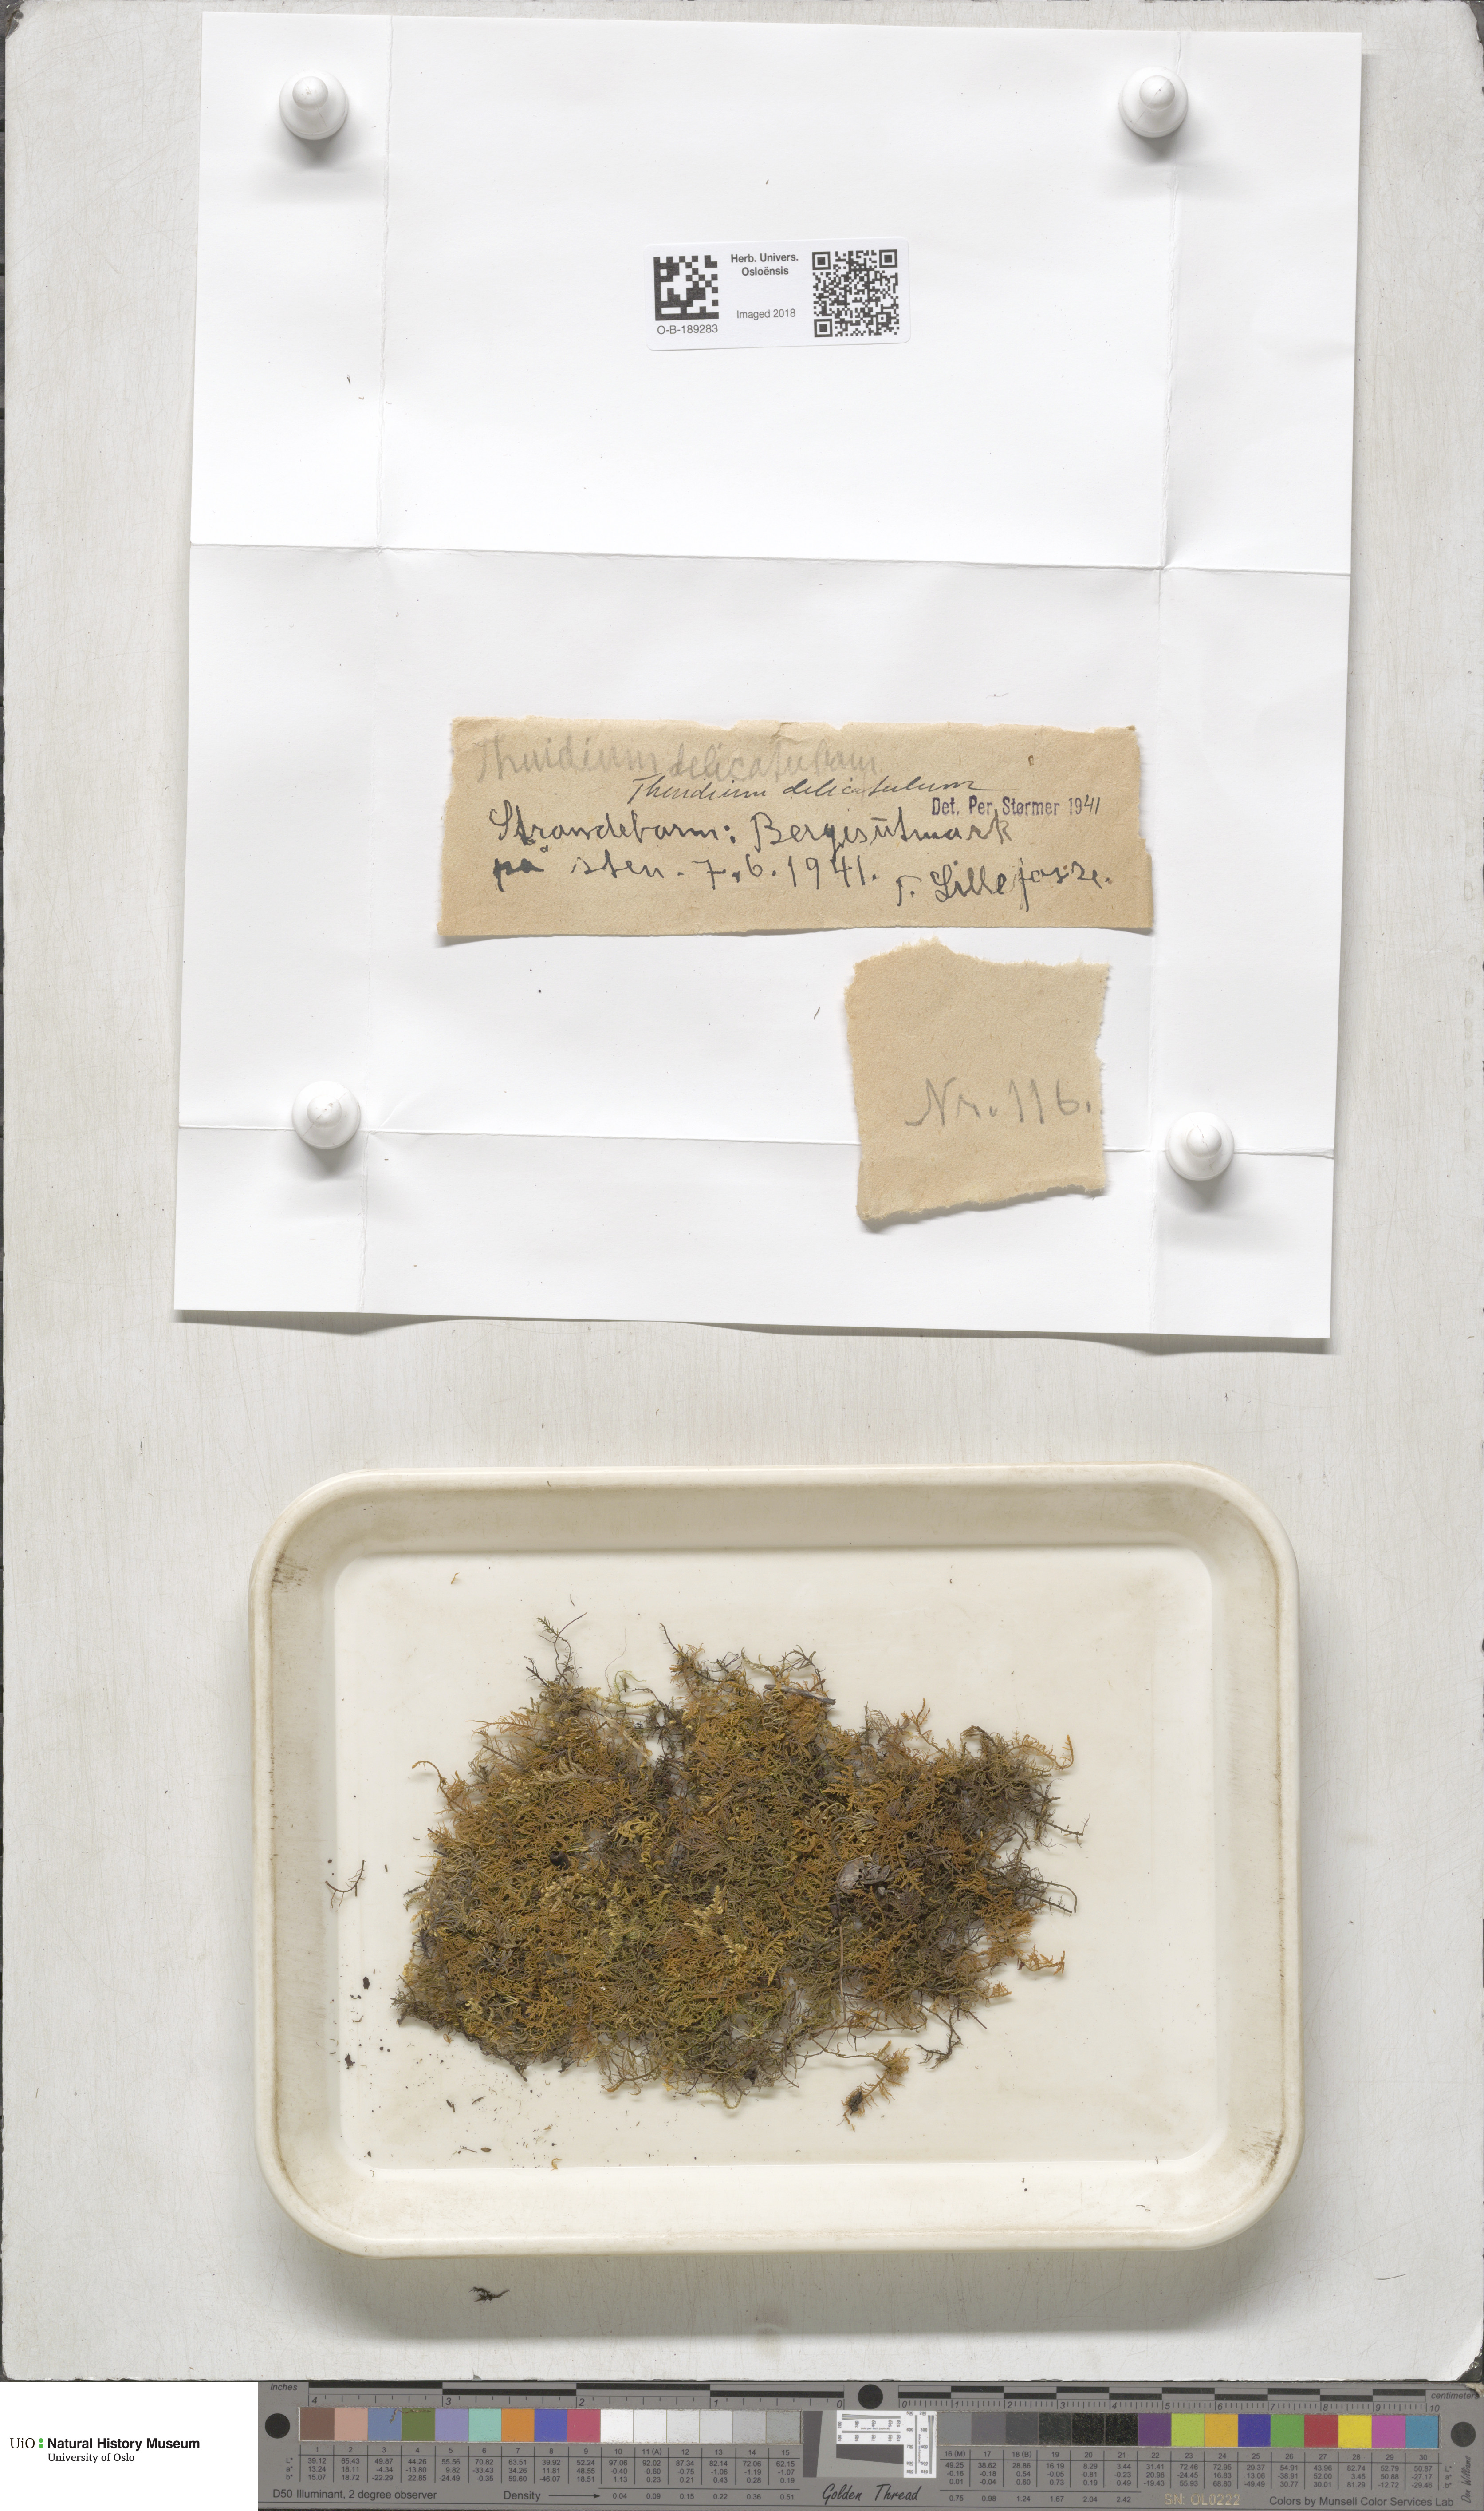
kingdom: Plantae
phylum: Bryophyta
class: Bryopsida
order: Hypnales
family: Thuidiaceae
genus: Thuidium
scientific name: Thuidium delicatulum
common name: Delicate fern moss
